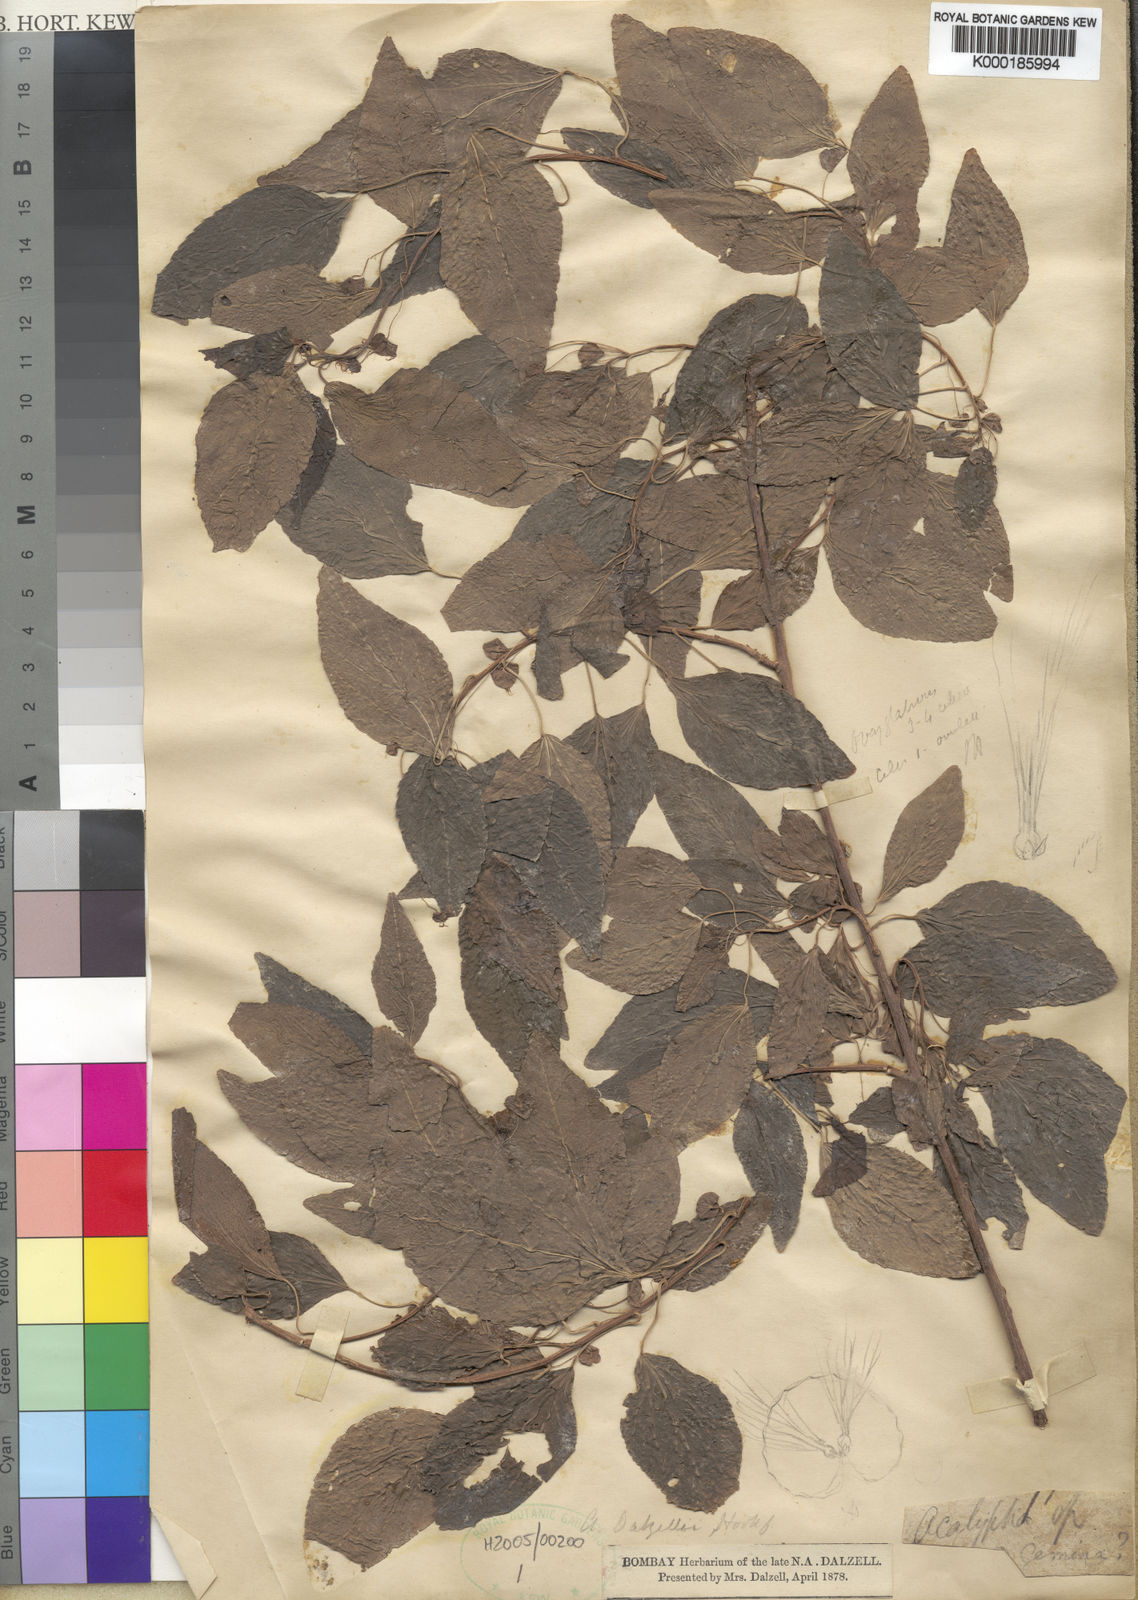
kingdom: Plantae
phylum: Tracheophyta
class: Magnoliopsida
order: Malpighiales
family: Euphorbiaceae
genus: Acalypha
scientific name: Acalypha dalzellii
